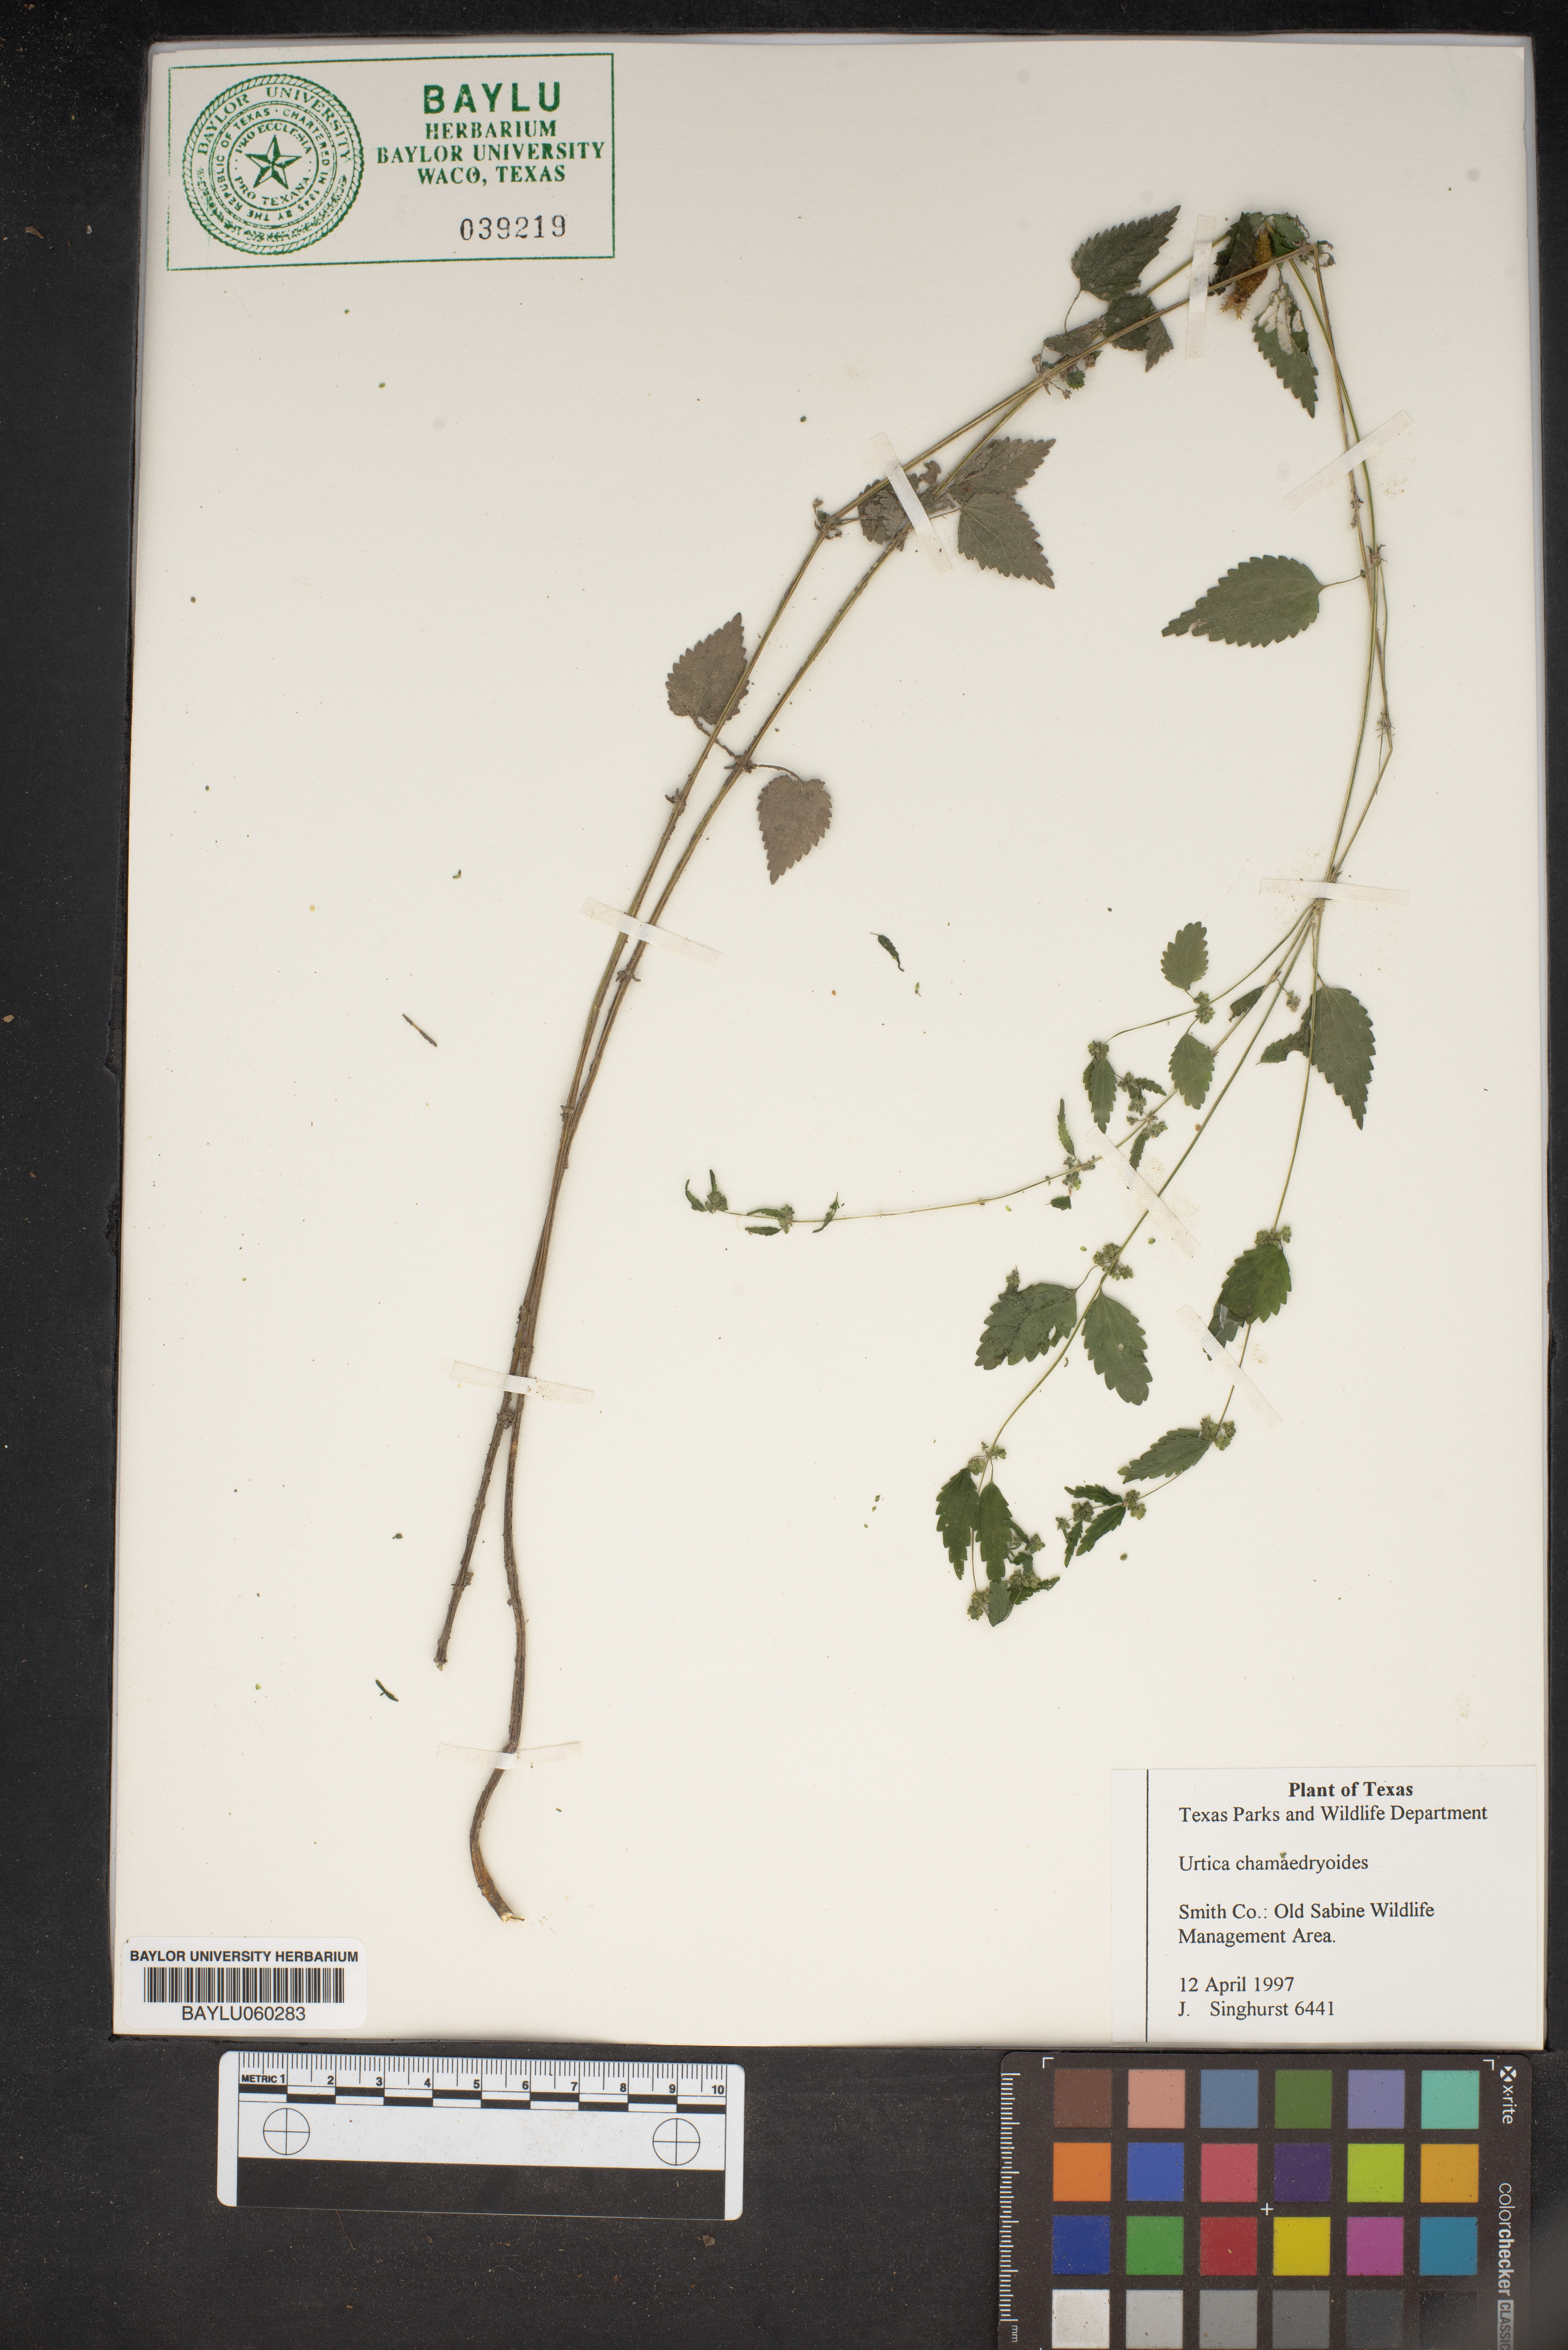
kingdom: Plantae
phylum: Tracheophyta
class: Magnoliopsida
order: Rosales
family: Urticaceae
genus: Urtica
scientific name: Urtica chamaedryoides
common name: Heart-leaf nettle
